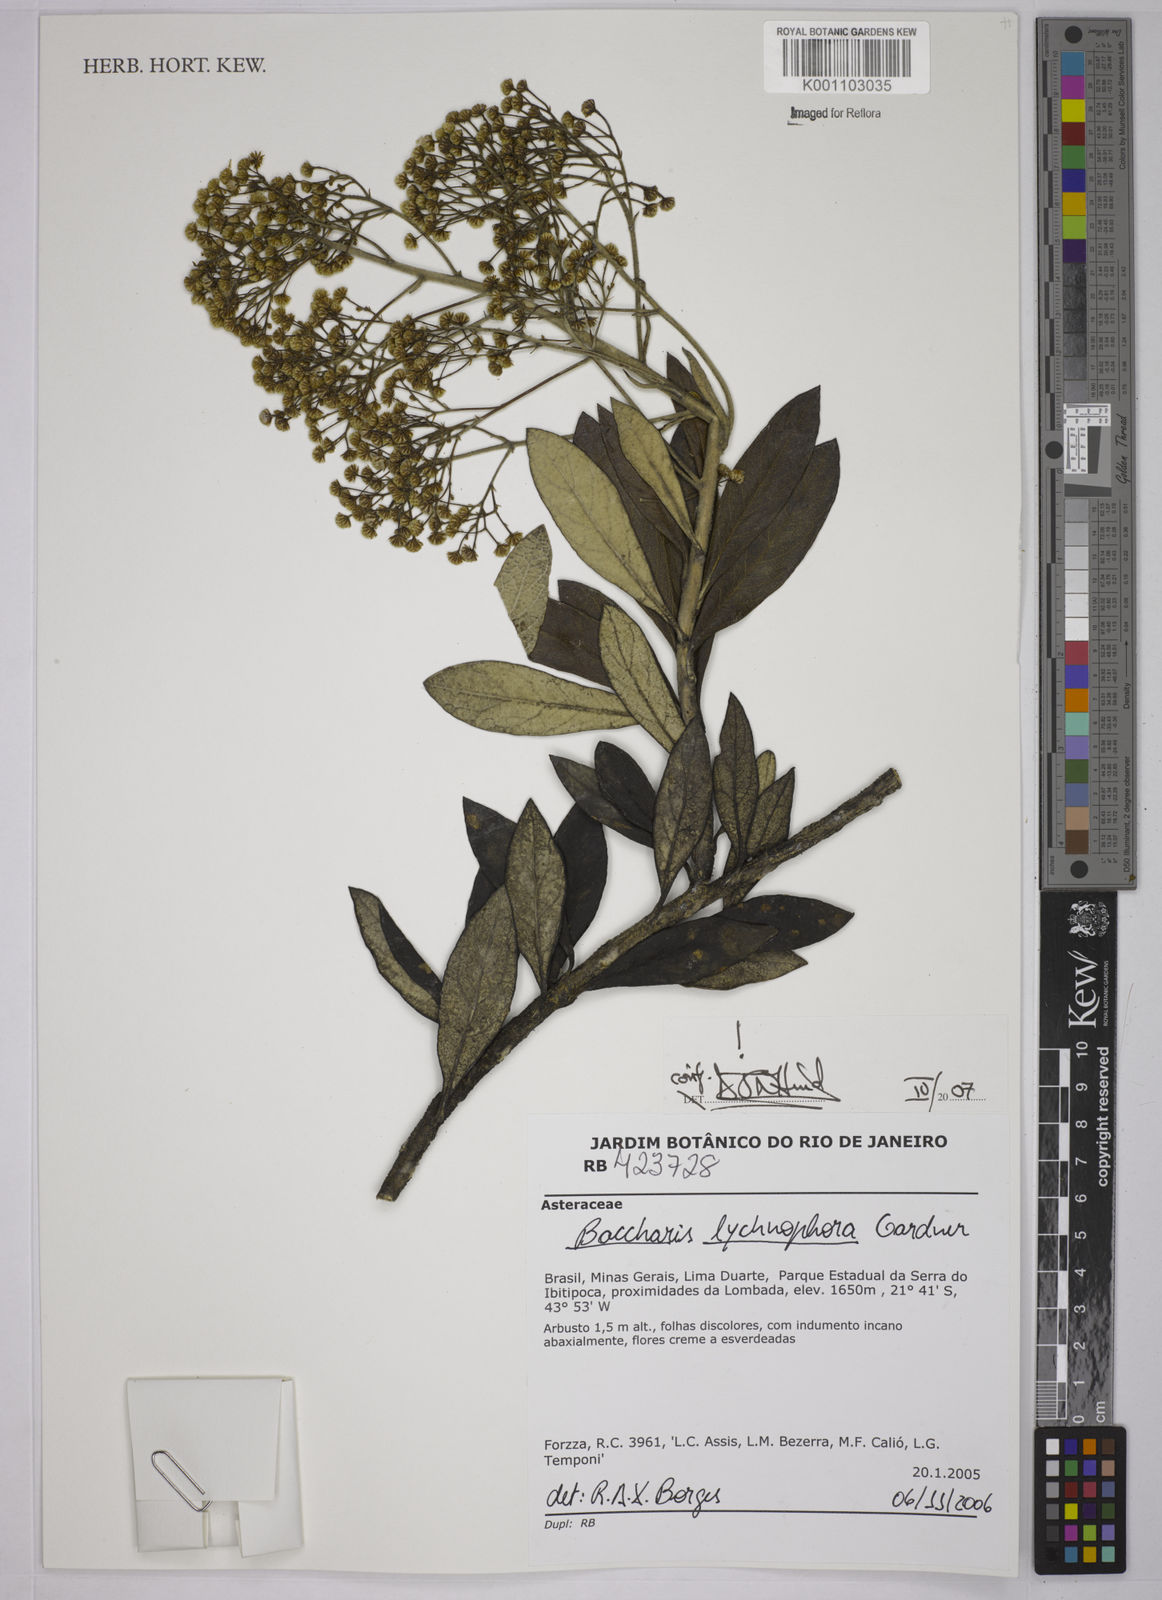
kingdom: Plantae
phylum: Tracheophyta
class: Magnoliopsida
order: Asterales
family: Asteraceae
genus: Baccharis
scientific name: Baccharis lychnophora
